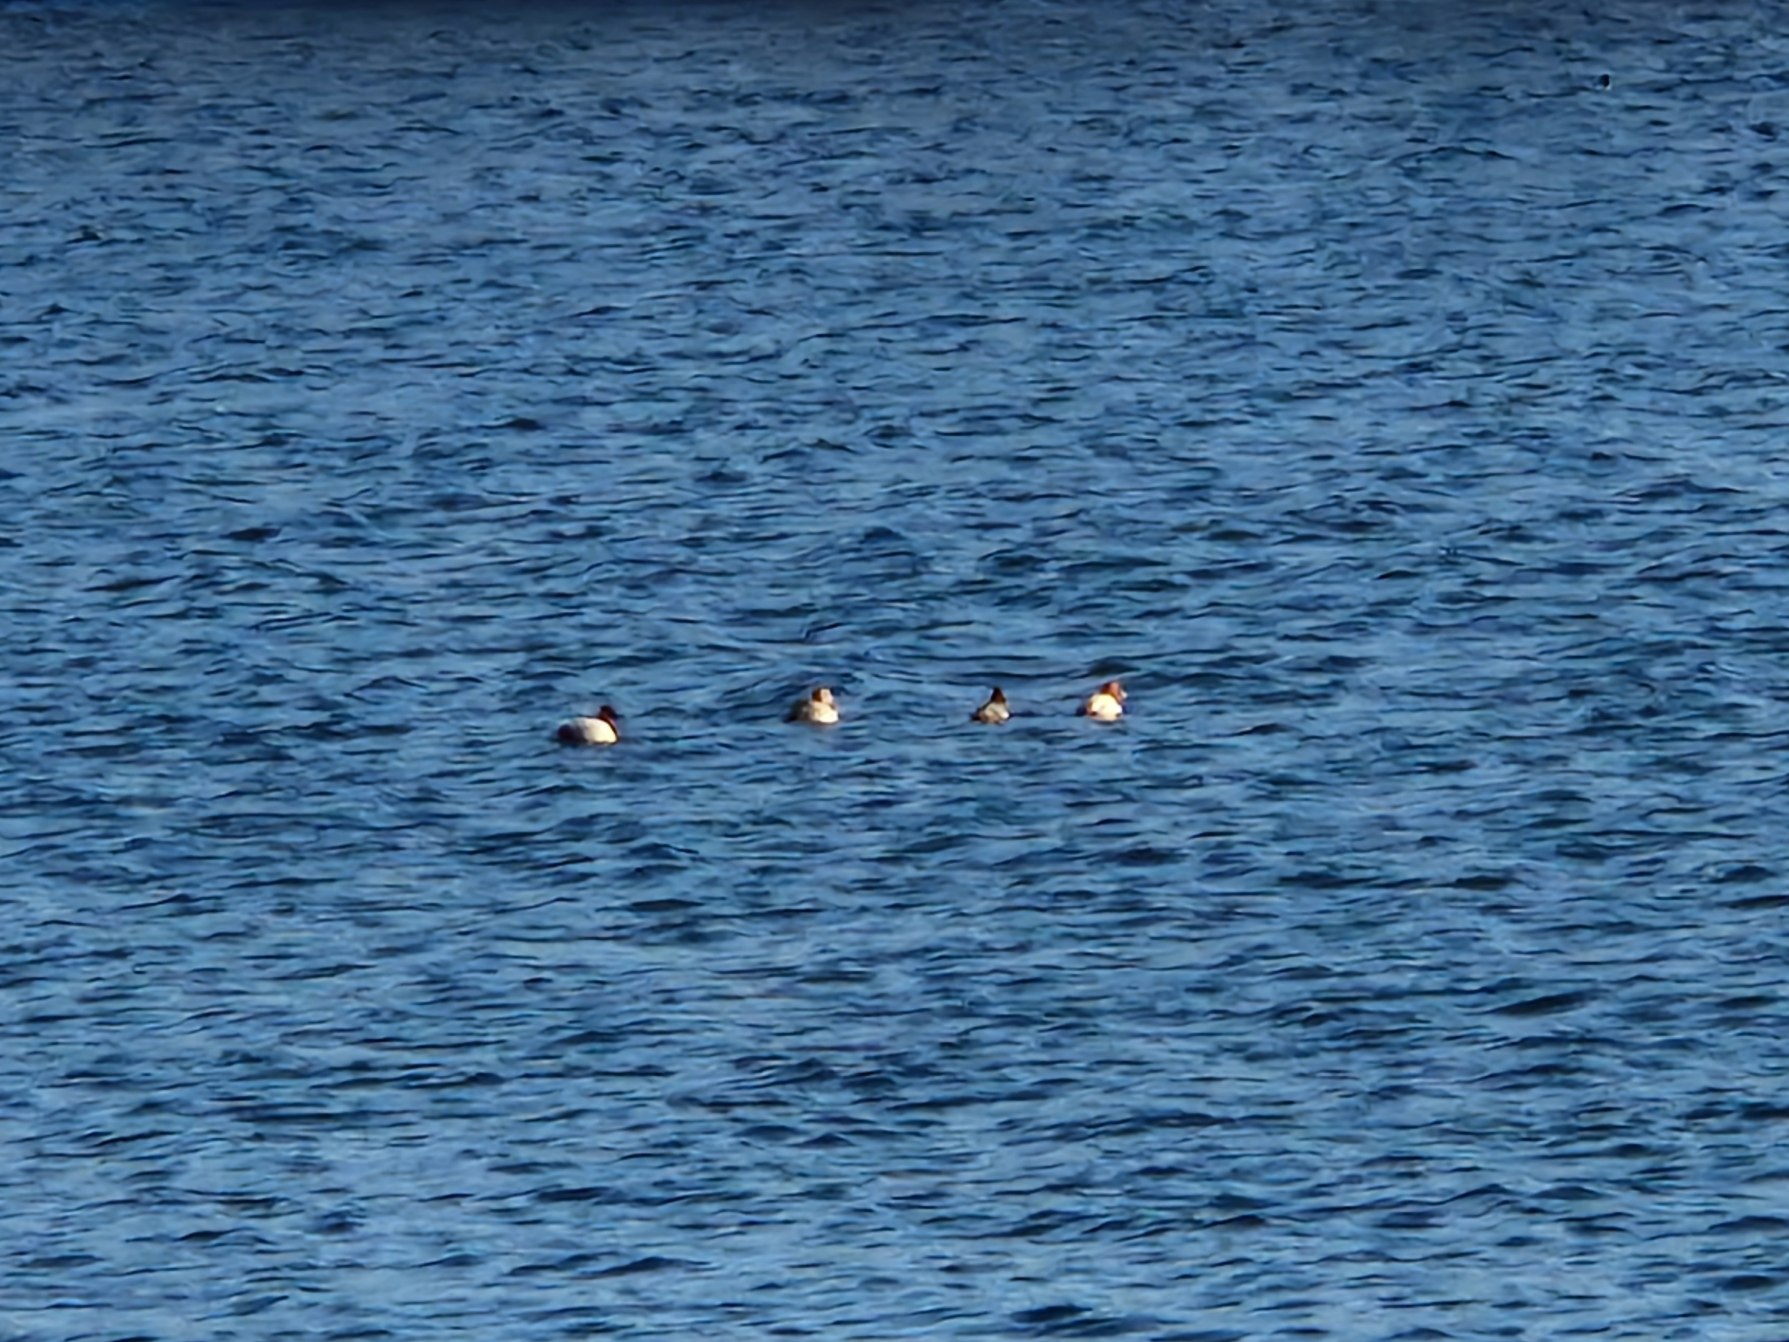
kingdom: Animalia
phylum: Chordata
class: Aves
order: Anseriformes
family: Anatidae
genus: Aythya
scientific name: Aythya ferina
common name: Taffeland
